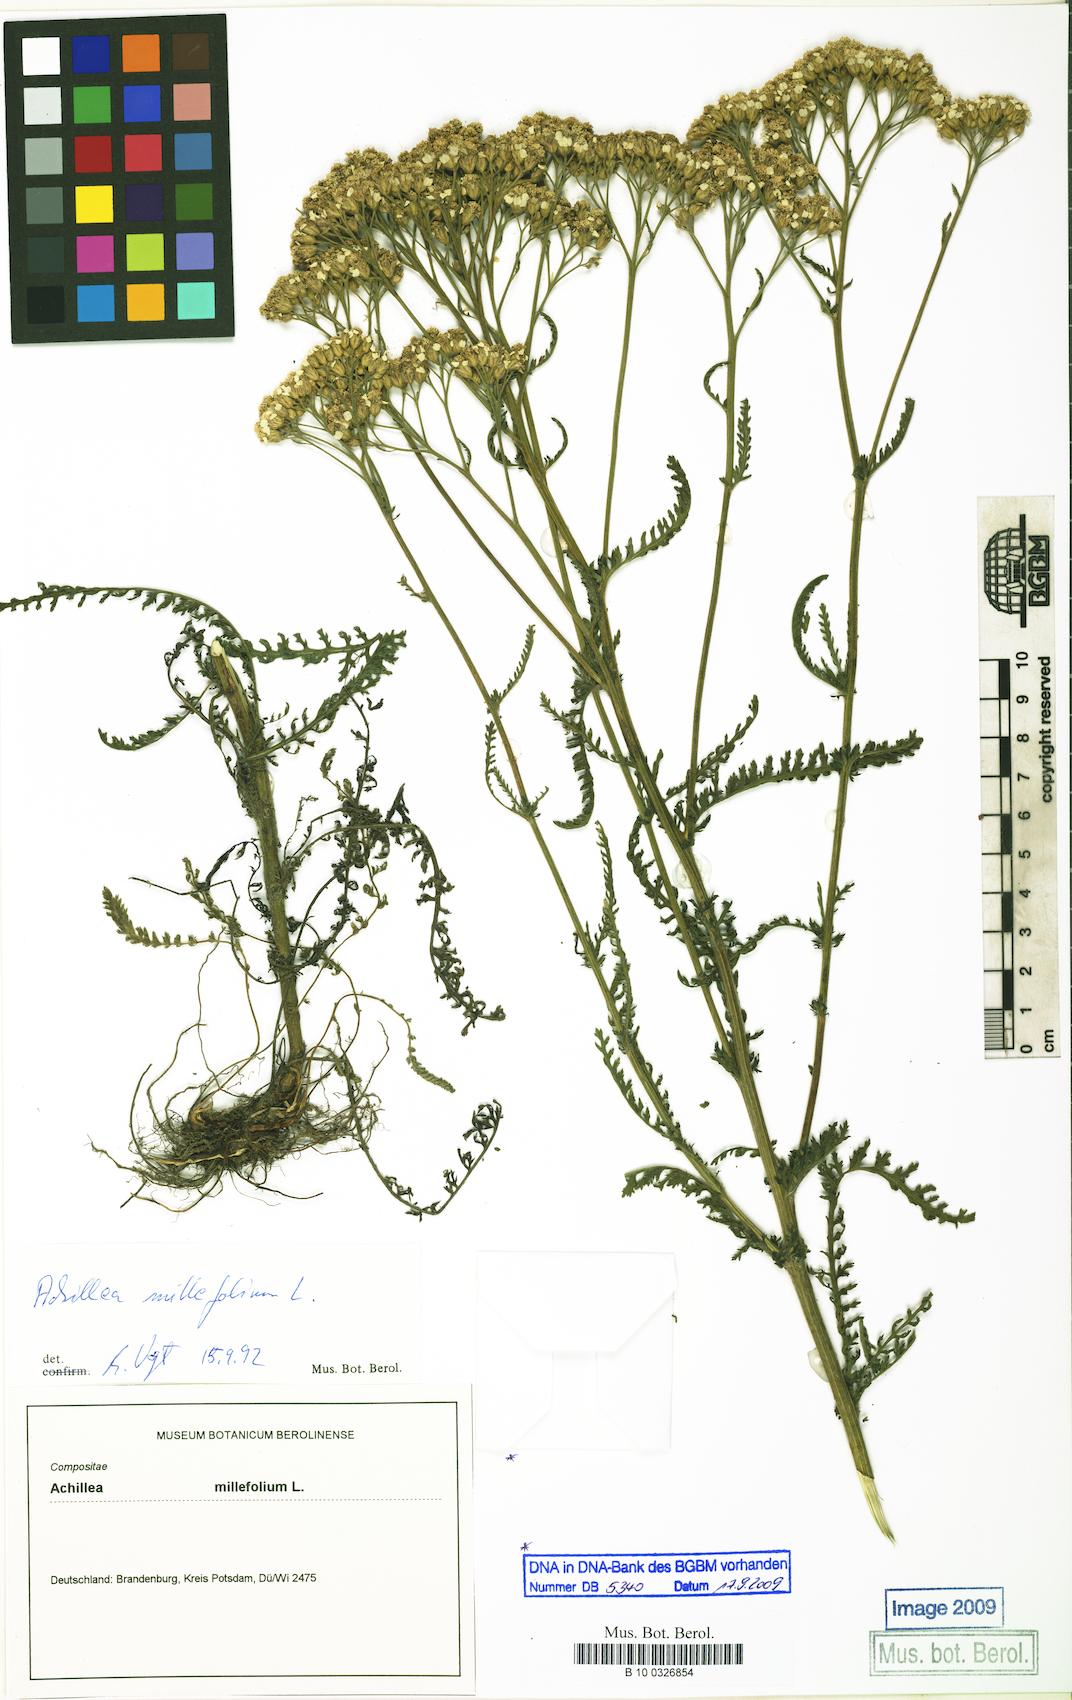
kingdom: Plantae
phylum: Tracheophyta
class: Magnoliopsida
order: Asterales
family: Asteraceae
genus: Achillea
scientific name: Achillea millefolium
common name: Yarrow
